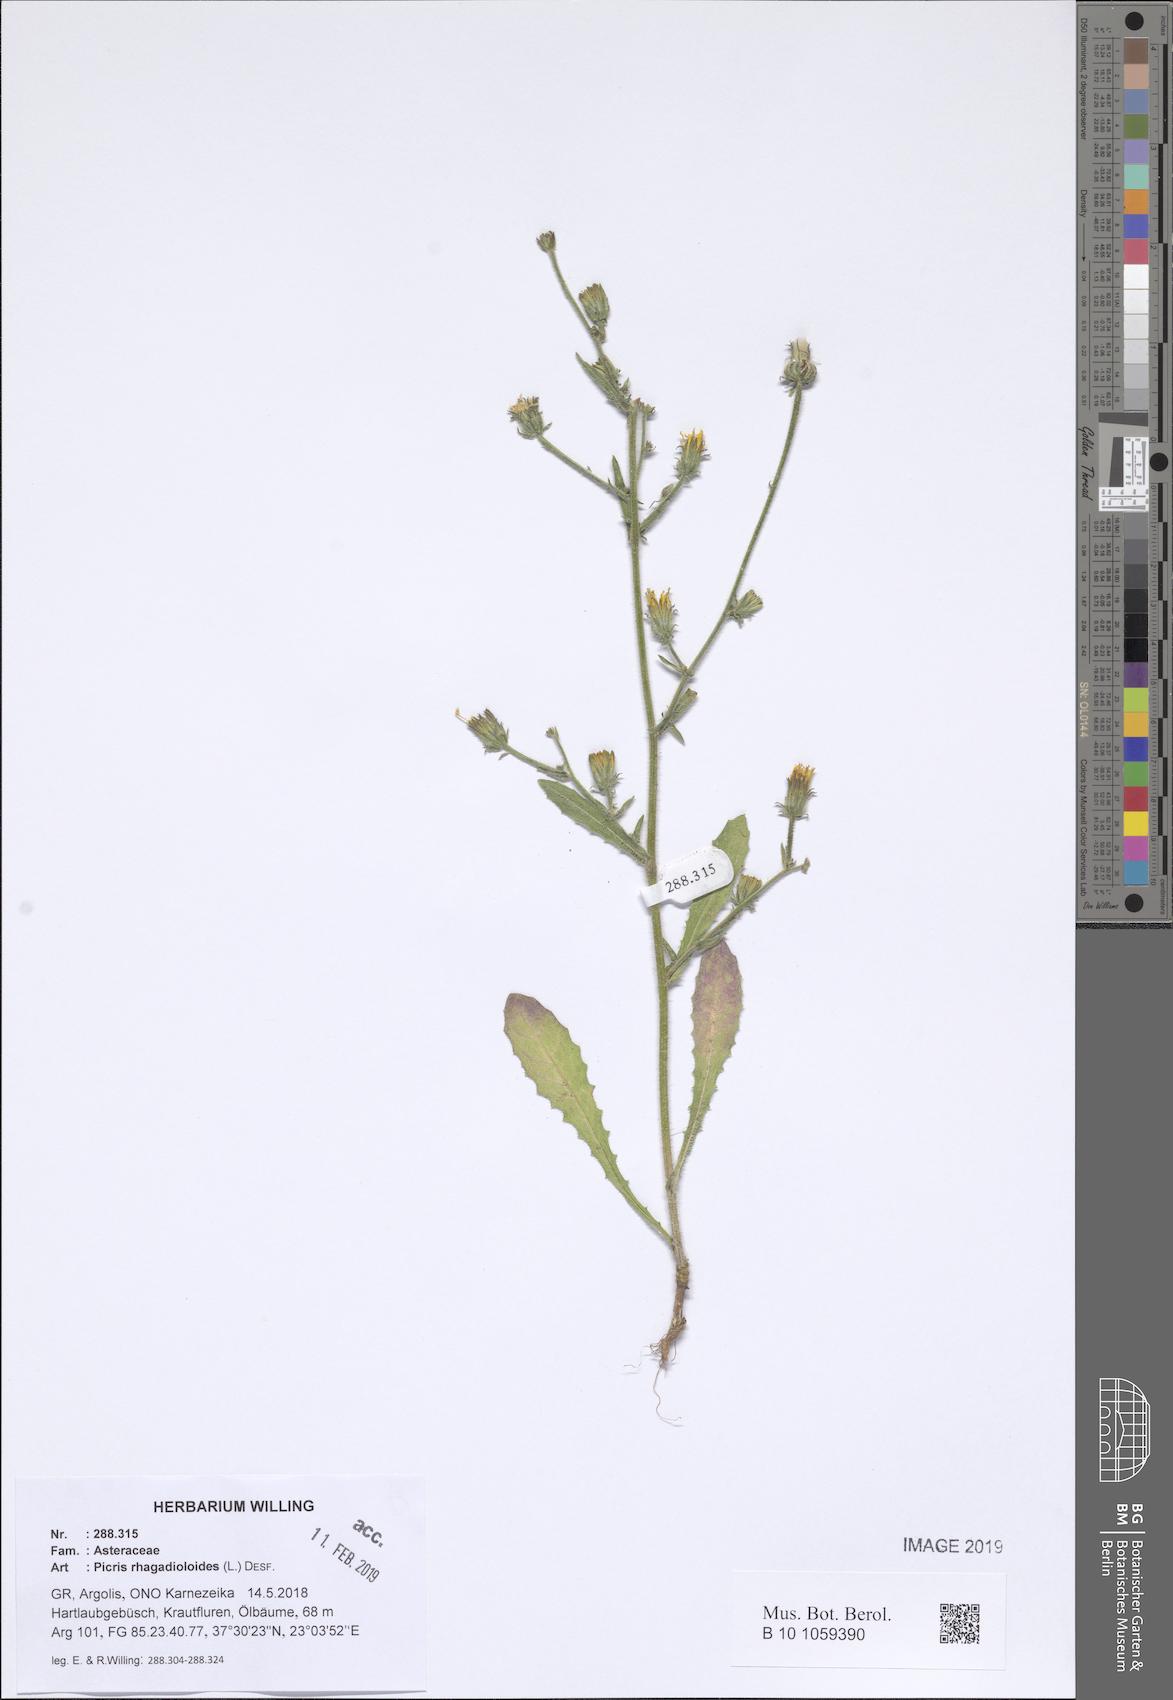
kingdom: Plantae
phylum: Tracheophyta
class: Magnoliopsida
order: Asterales
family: Asteraceae
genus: Picris
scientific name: Picris rhagadioloides
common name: Oxtongue
